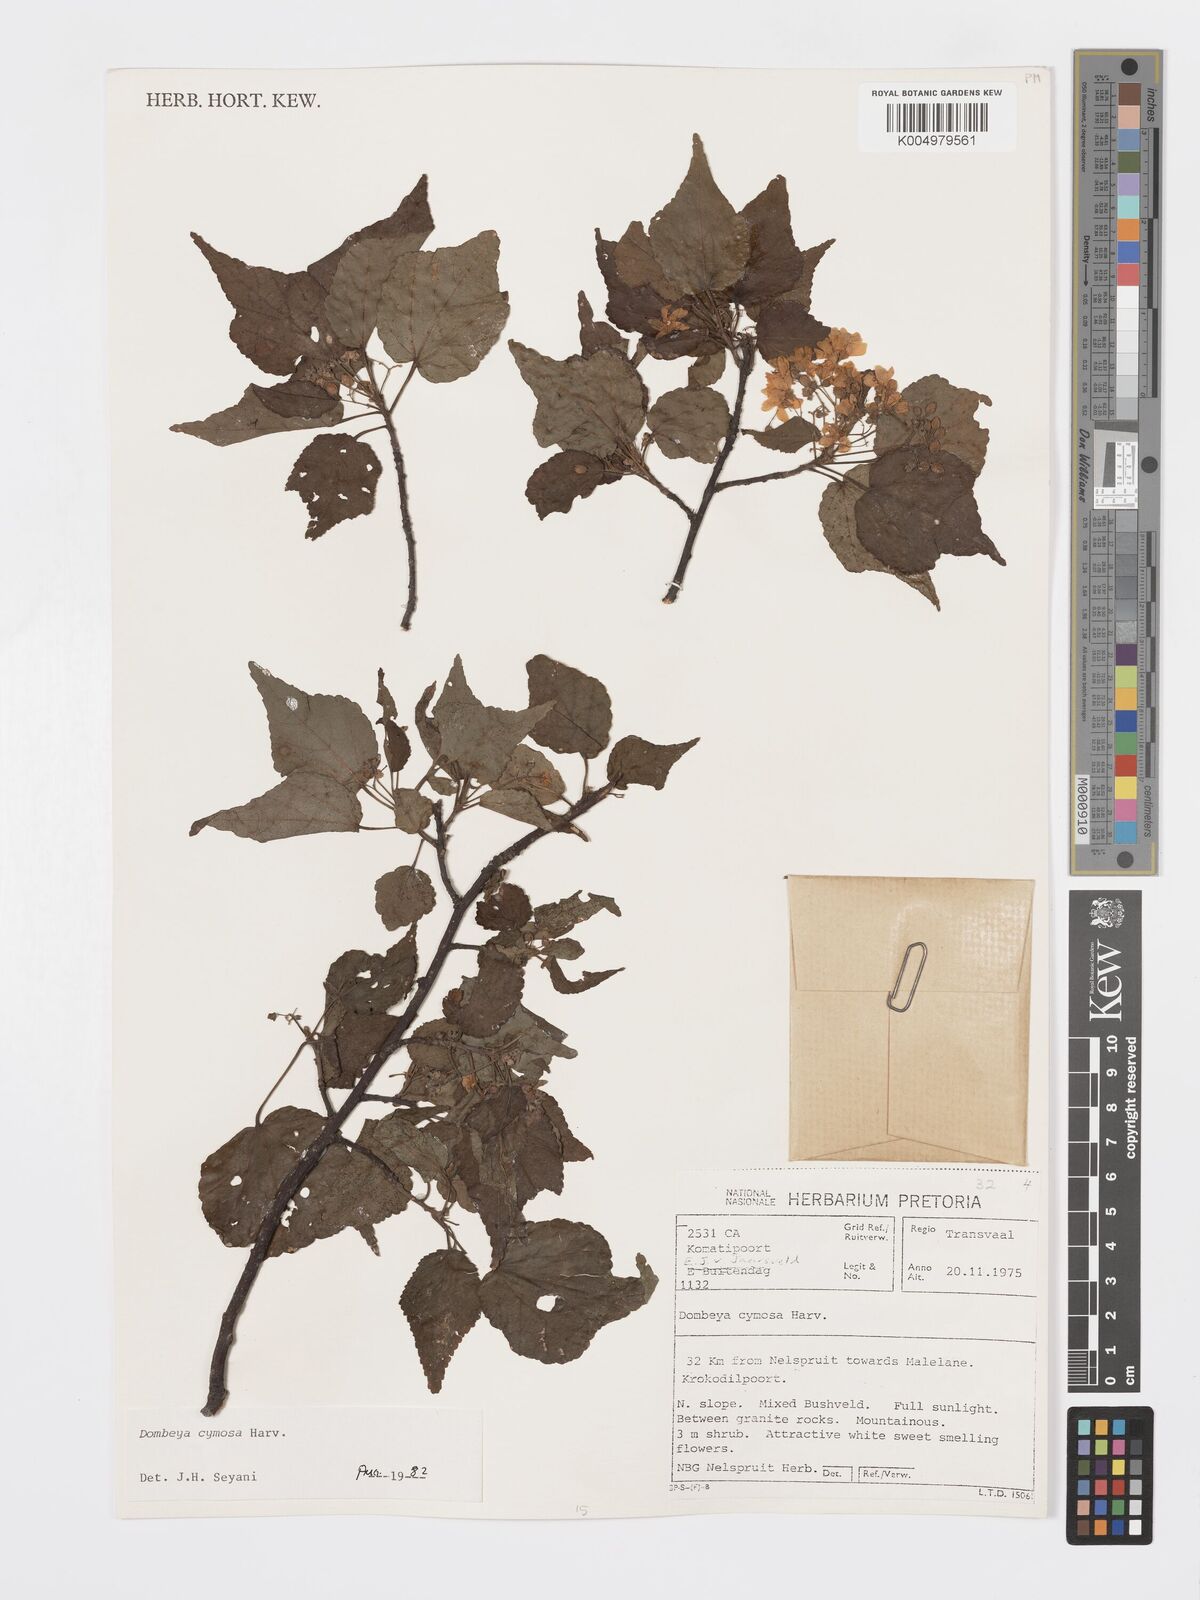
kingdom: Plantae
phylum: Tracheophyta
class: Magnoliopsida
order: Malvales
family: Malvaceae
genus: Dombeya
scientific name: Dombeya cymosa
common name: Hairless dombeya
